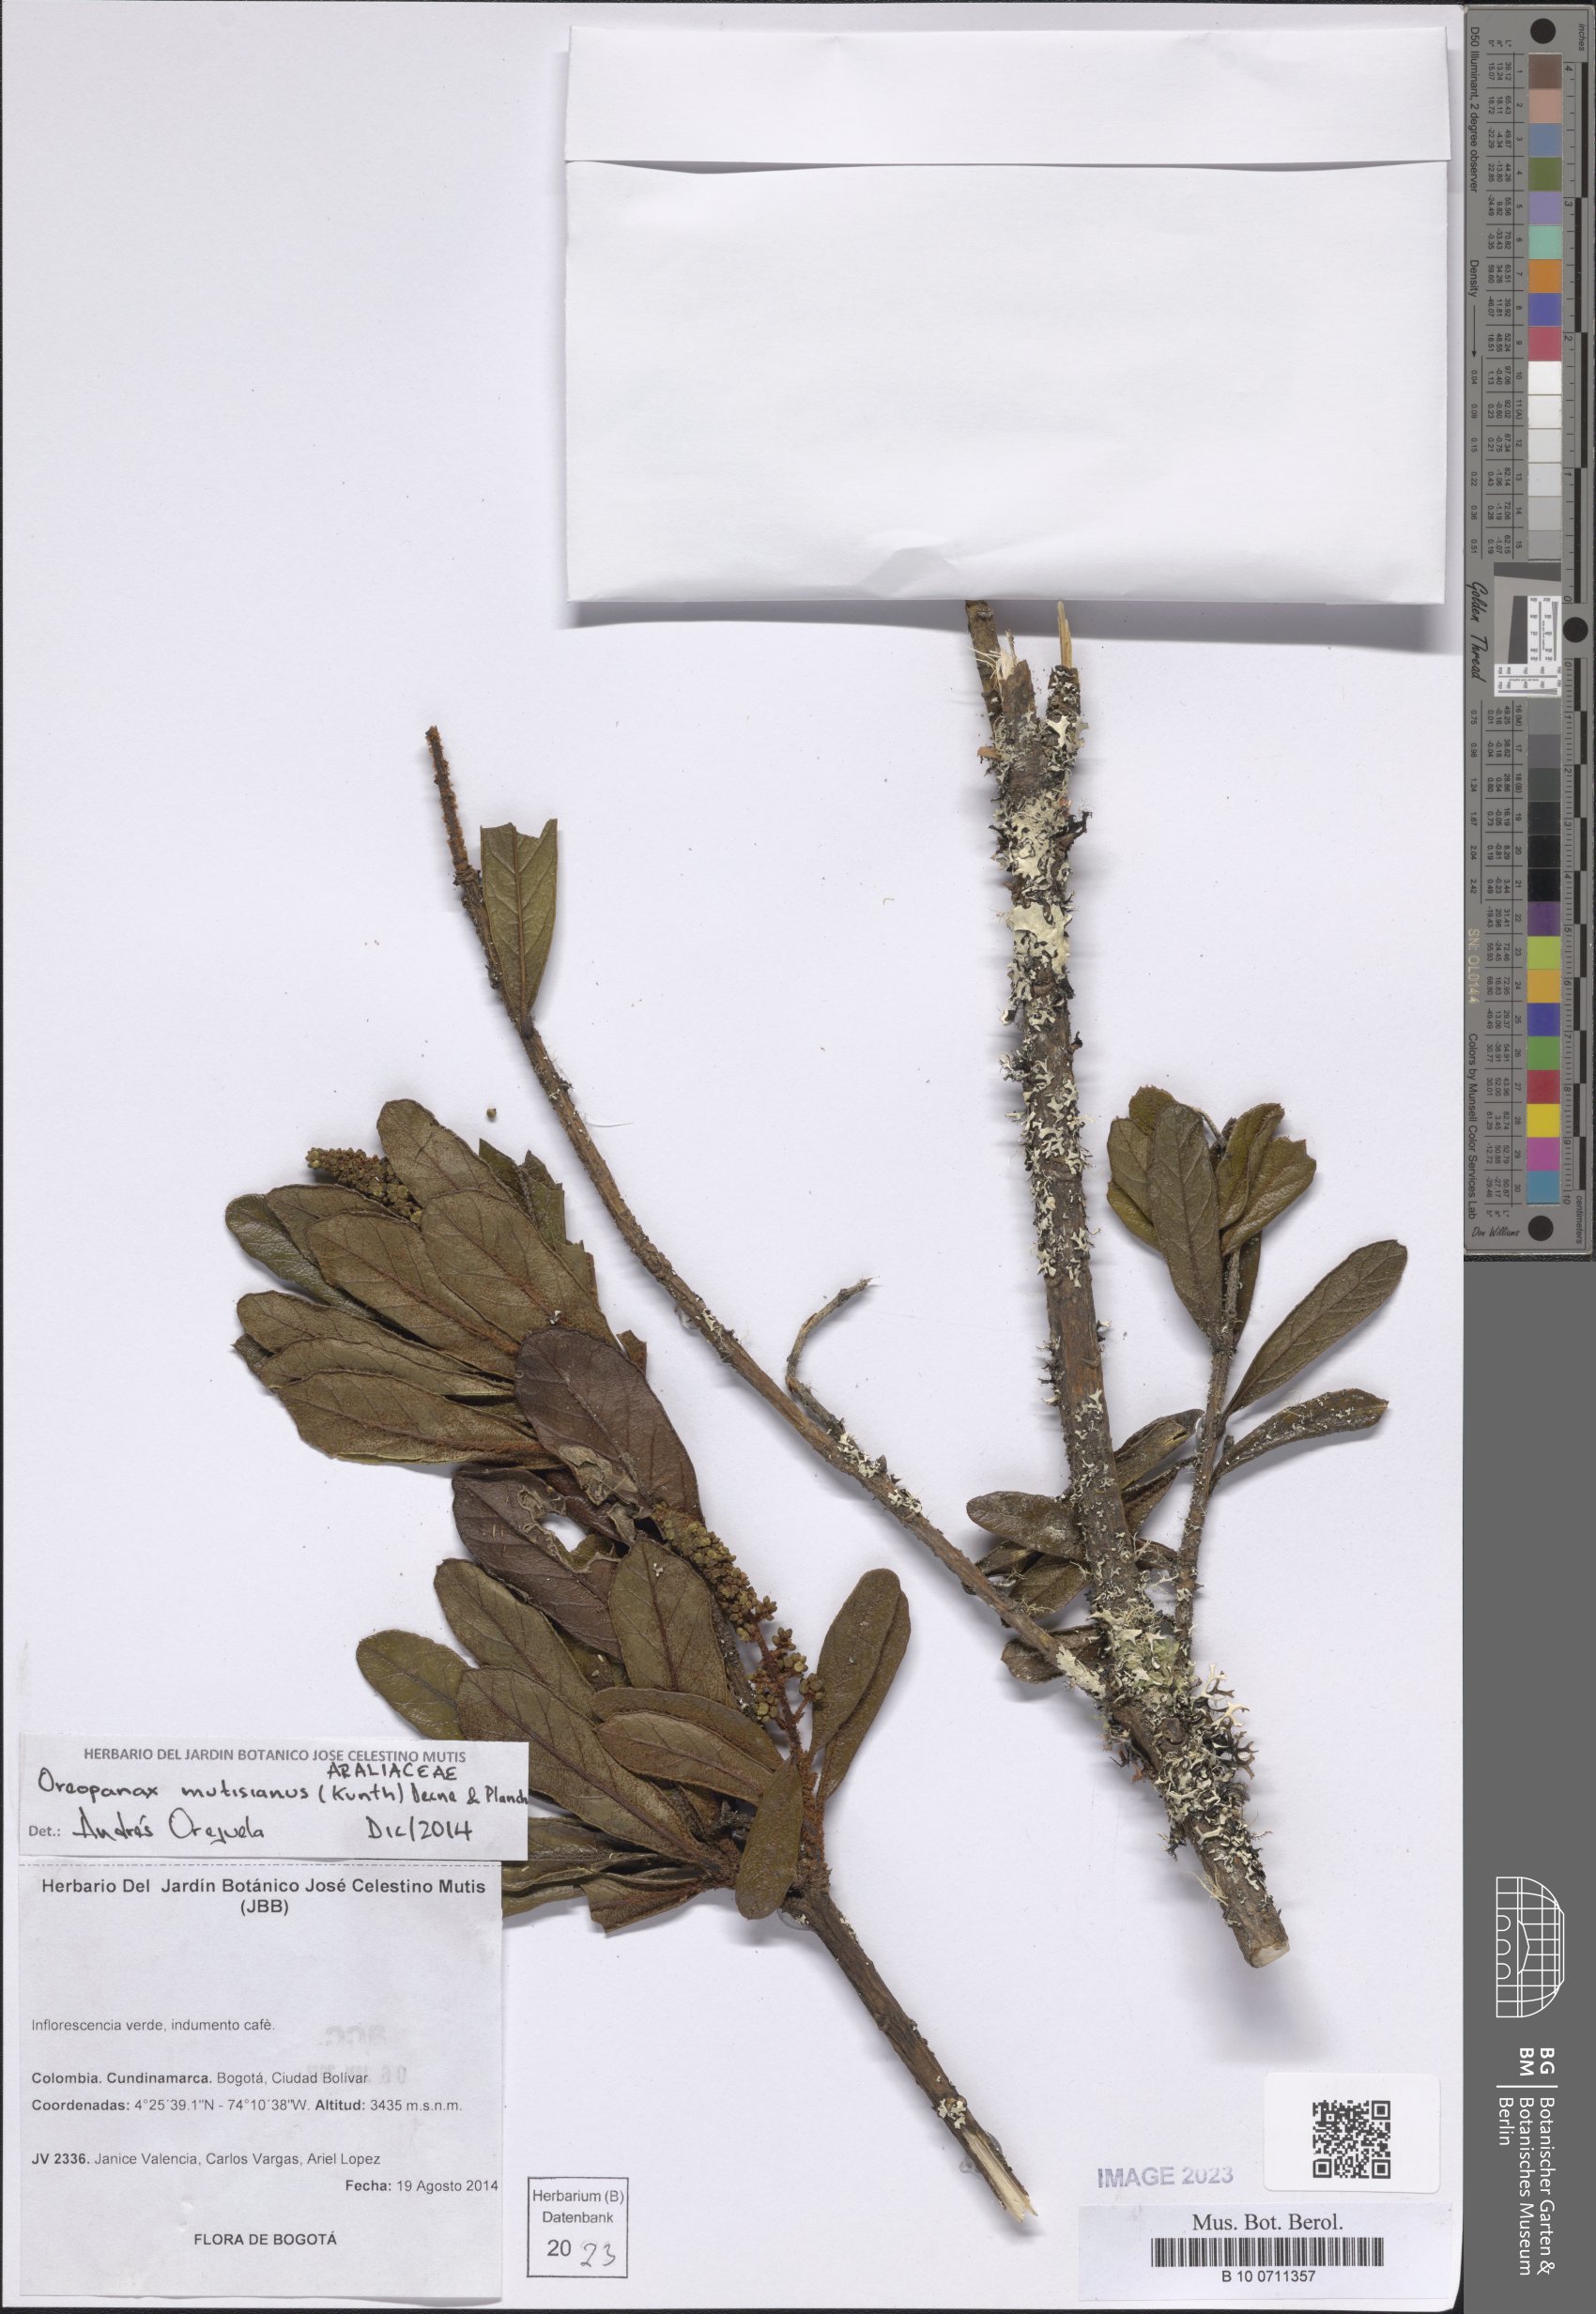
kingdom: Plantae
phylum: Tracheophyta
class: Magnoliopsida
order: Apiales
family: Araliaceae
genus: Oreopanax
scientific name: Oreopanax mutisianus
